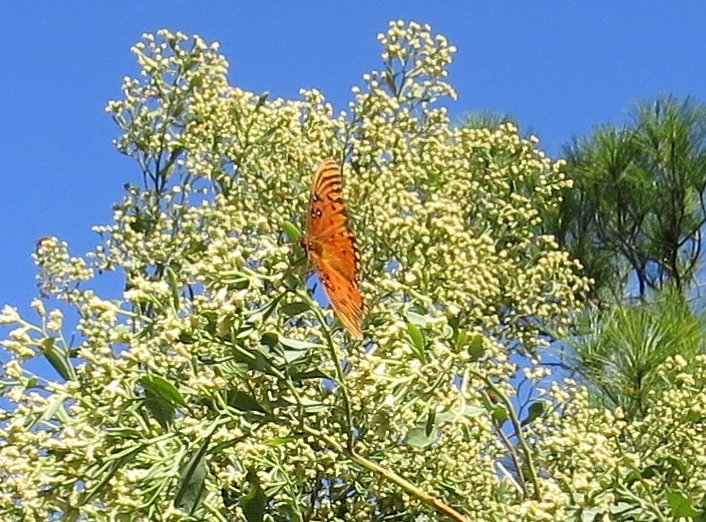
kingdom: Animalia
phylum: Arthropoda
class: Insecta
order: Lepidoptera
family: Nymphalidae
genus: Dione
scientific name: Dione vanillae
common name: Gulf Fritillary
